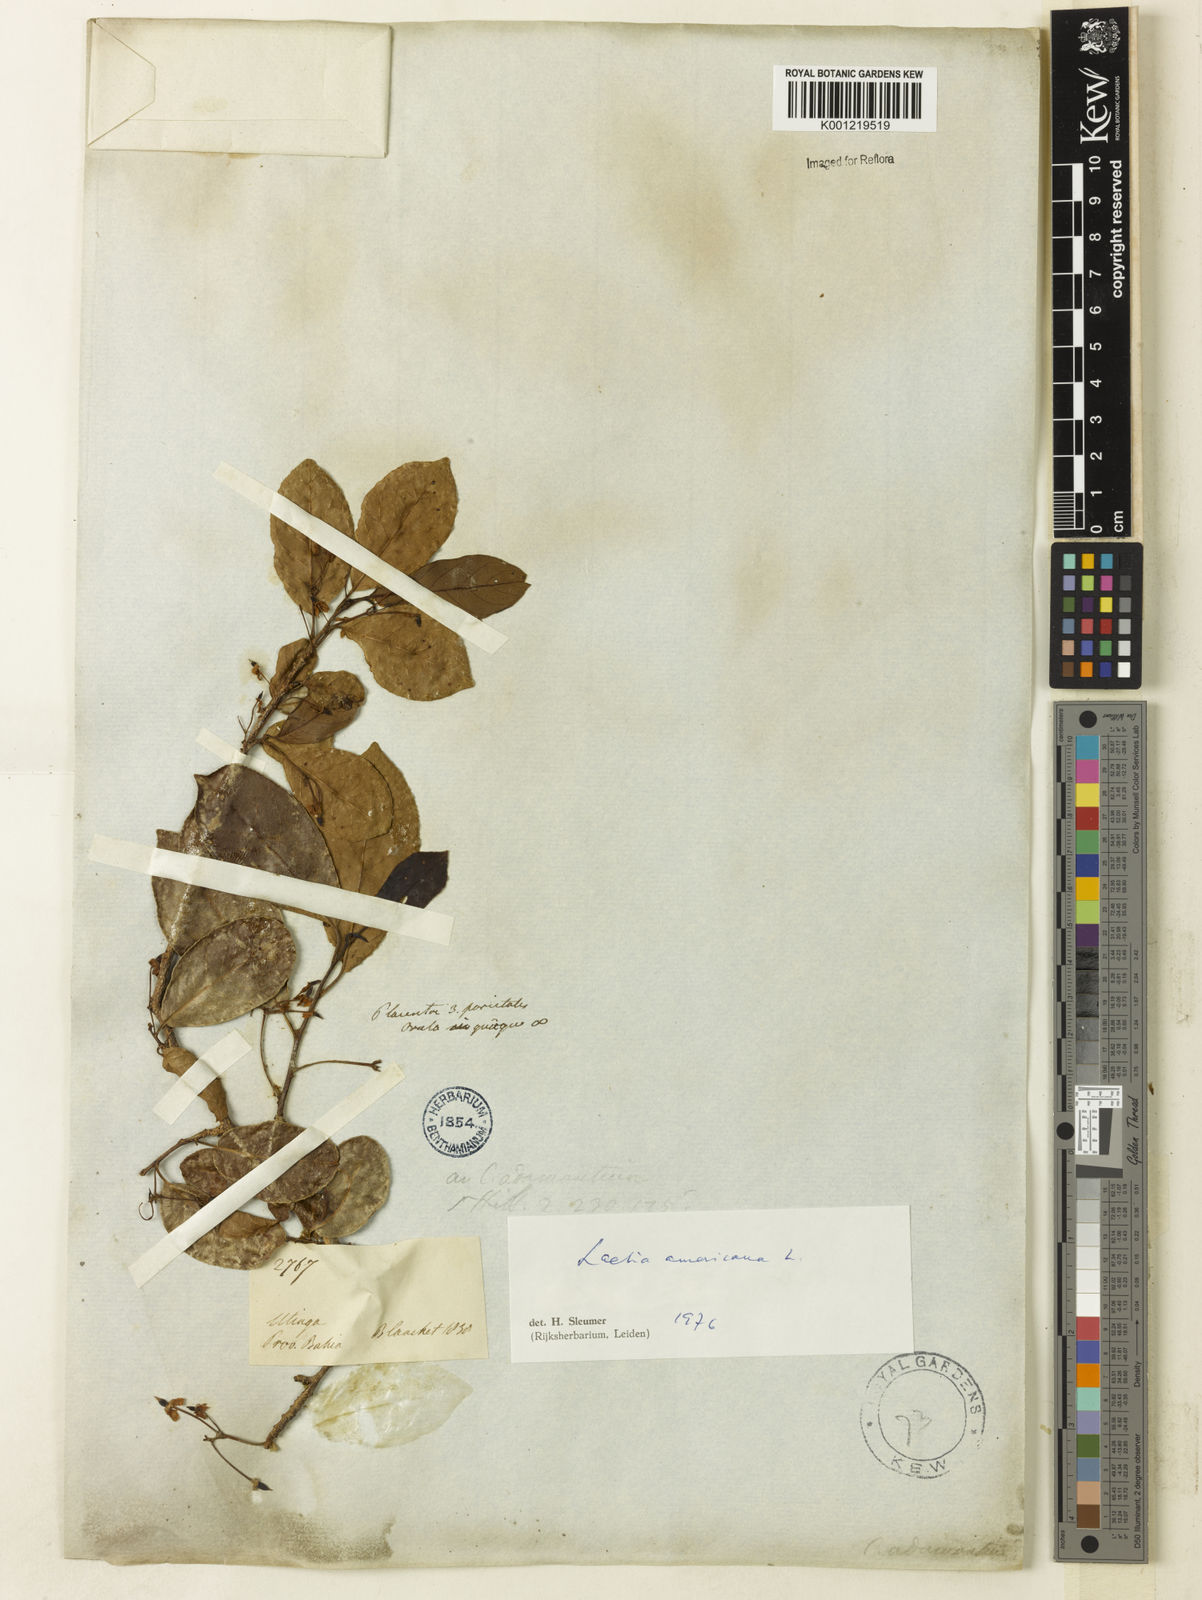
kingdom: Plantae
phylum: Tracheophyta
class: Magnoliopsida
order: Malpighiales
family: Salicaceae
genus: Casearia
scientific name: Casearia americana
